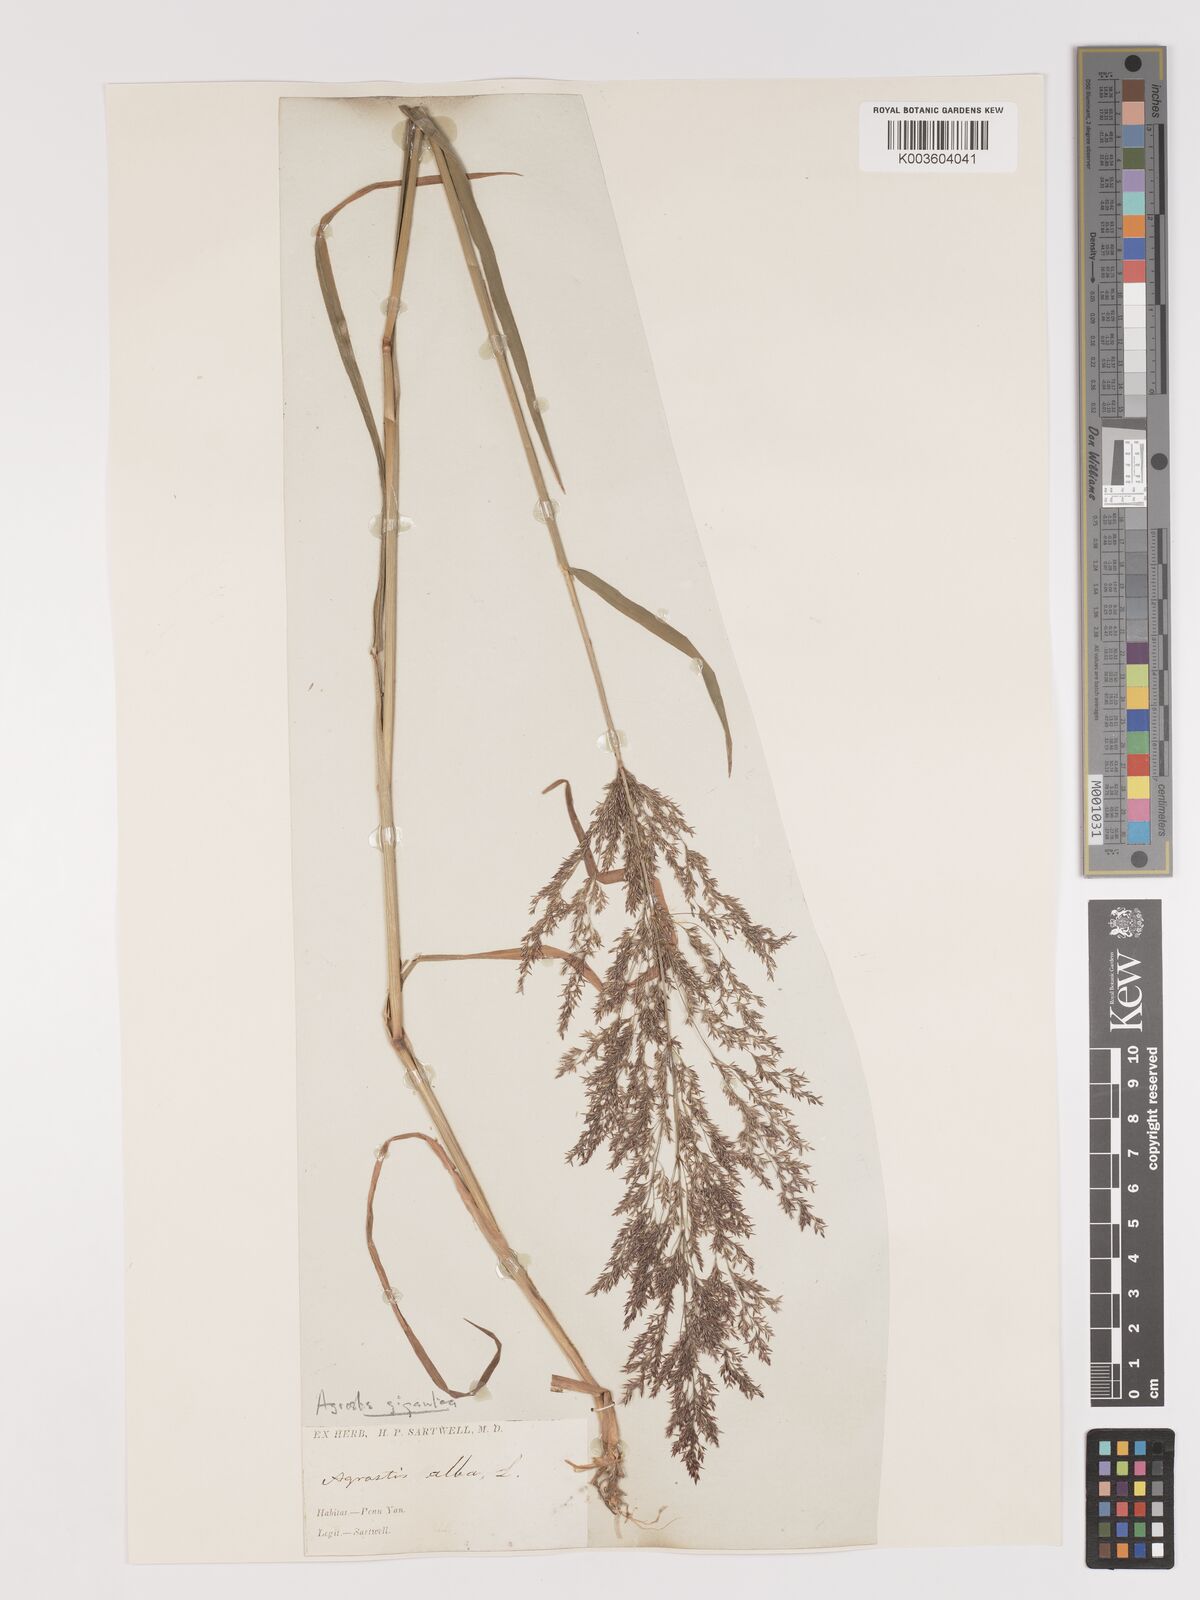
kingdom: Plantae
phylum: Tracheophyta
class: Liliopsida
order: Poales
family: Poaceae
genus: Agrostis
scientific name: Agrostis gigantea
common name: Black bent
